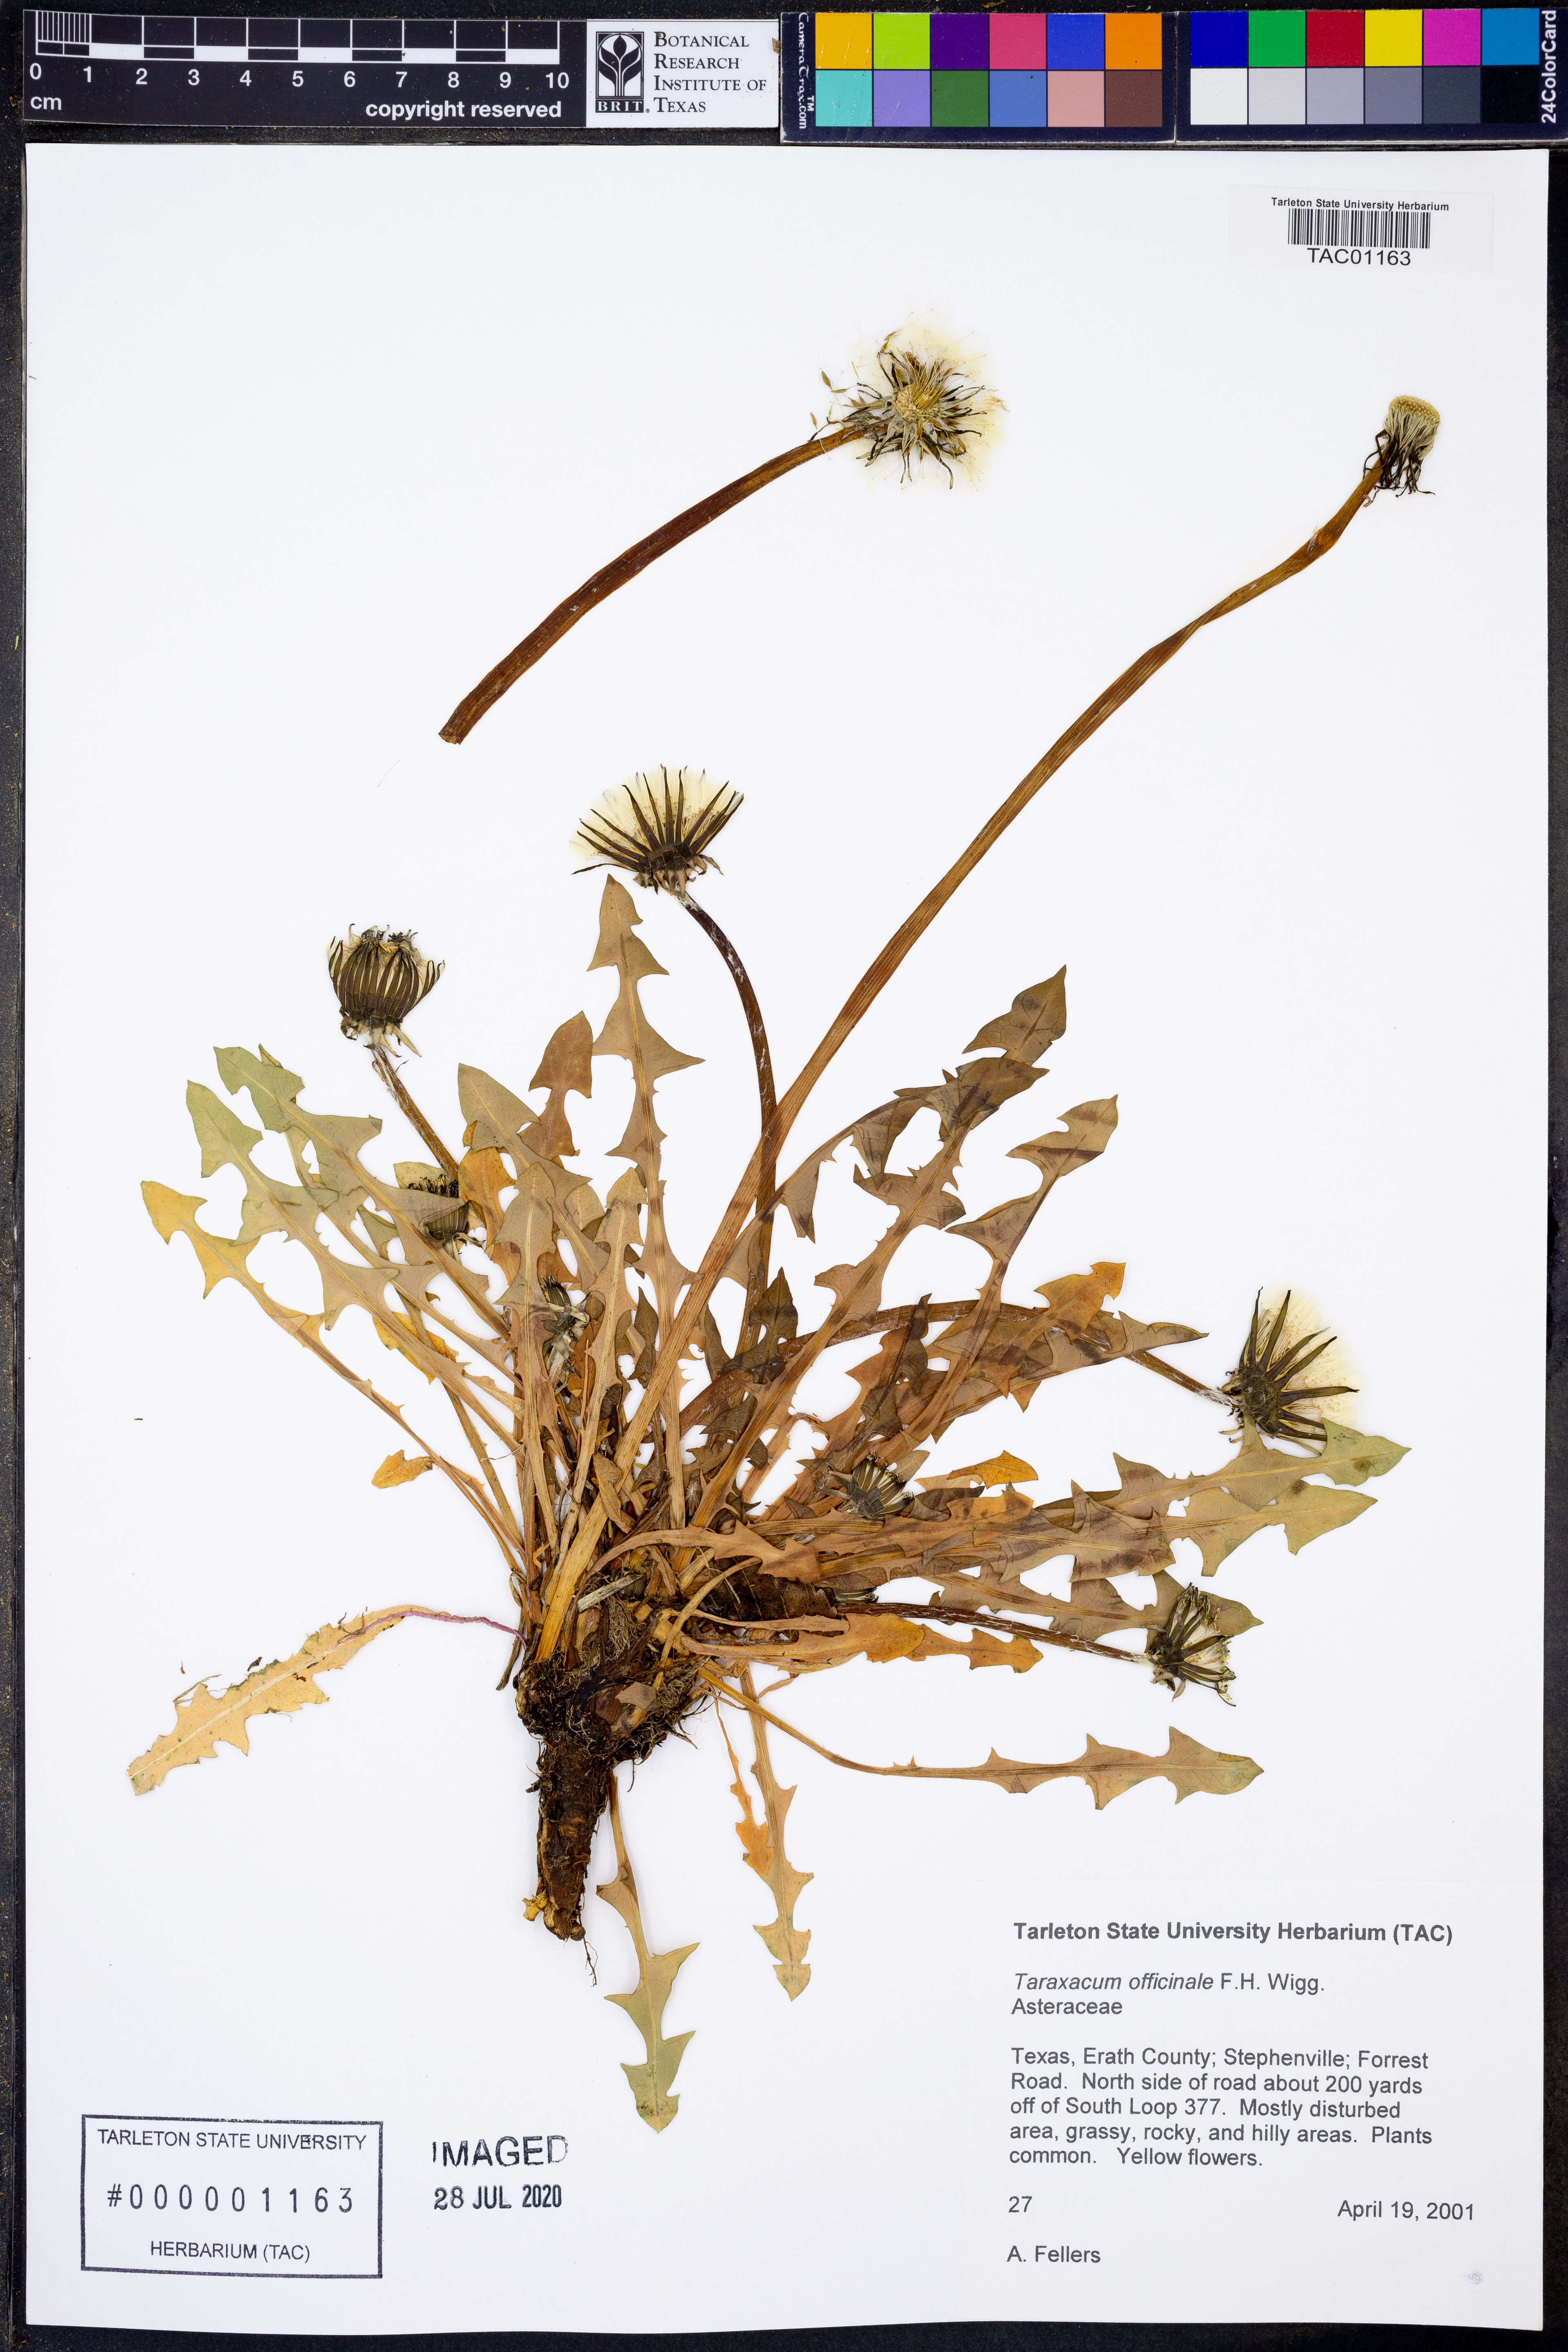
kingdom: Plantae
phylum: Tracheophyta
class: Magnoliopsida
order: Asterales
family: Asteraceae
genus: Taraxacum
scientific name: Taraxacum officinale
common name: Common dandelion
